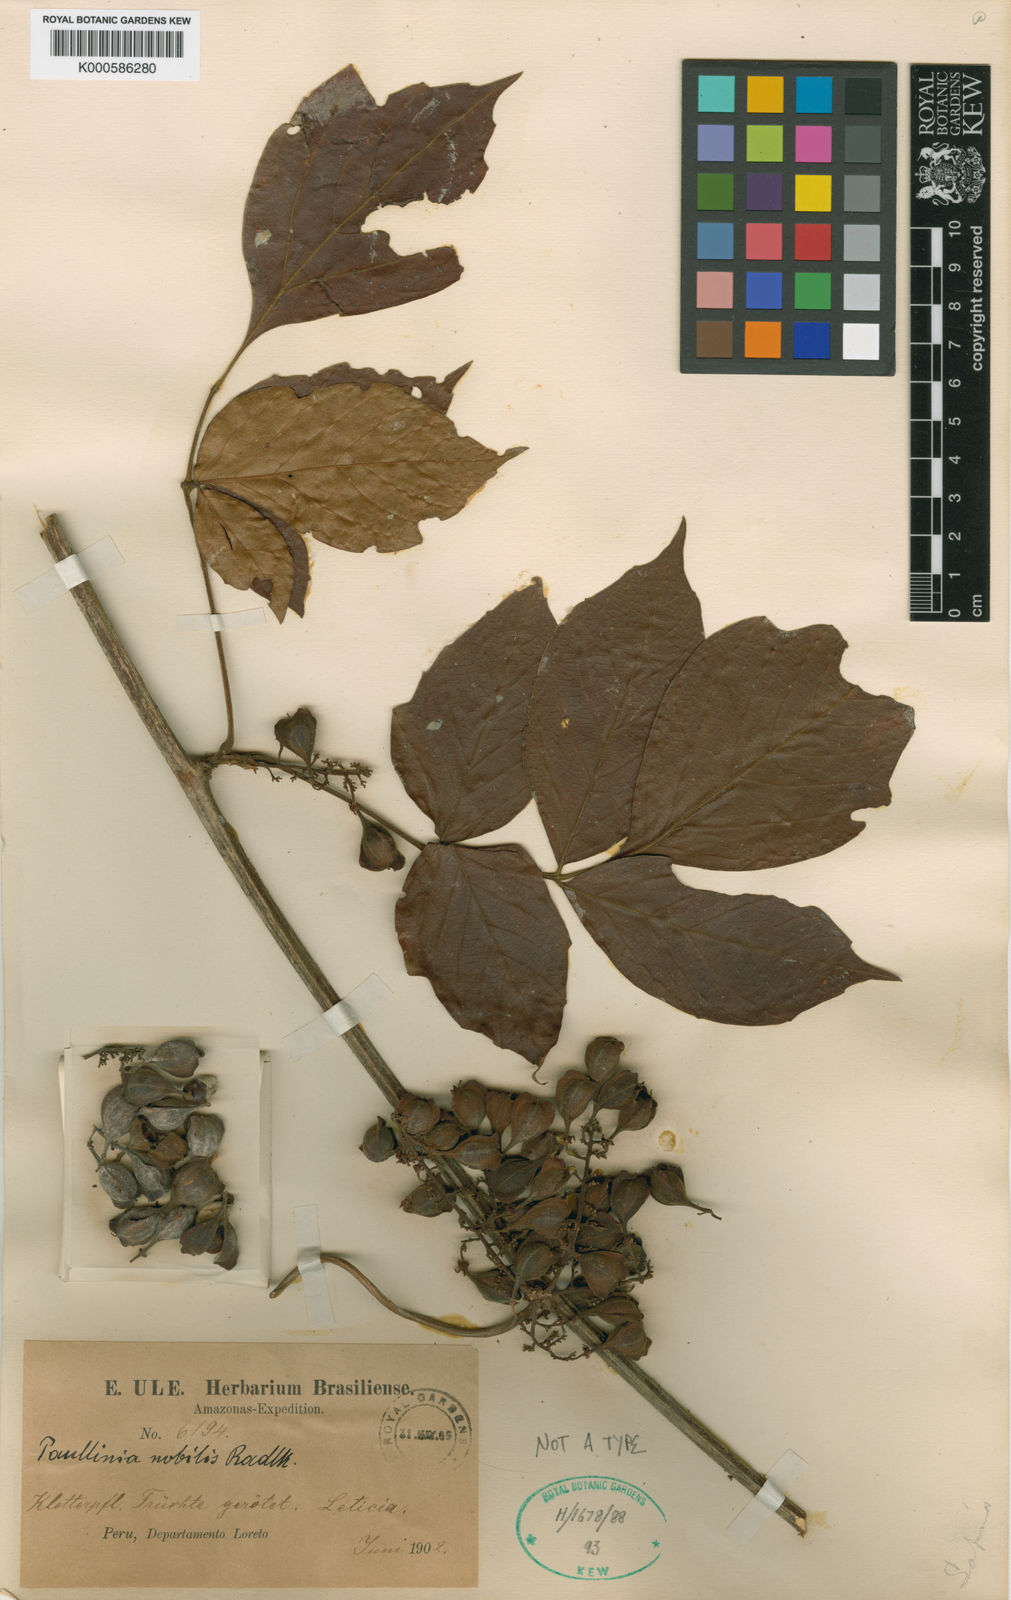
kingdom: Plantae
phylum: Tracheophyta
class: Magnoliopsida
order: Sapindales
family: Sapindaceae
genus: Paullinia
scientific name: Paullinia nobilis
